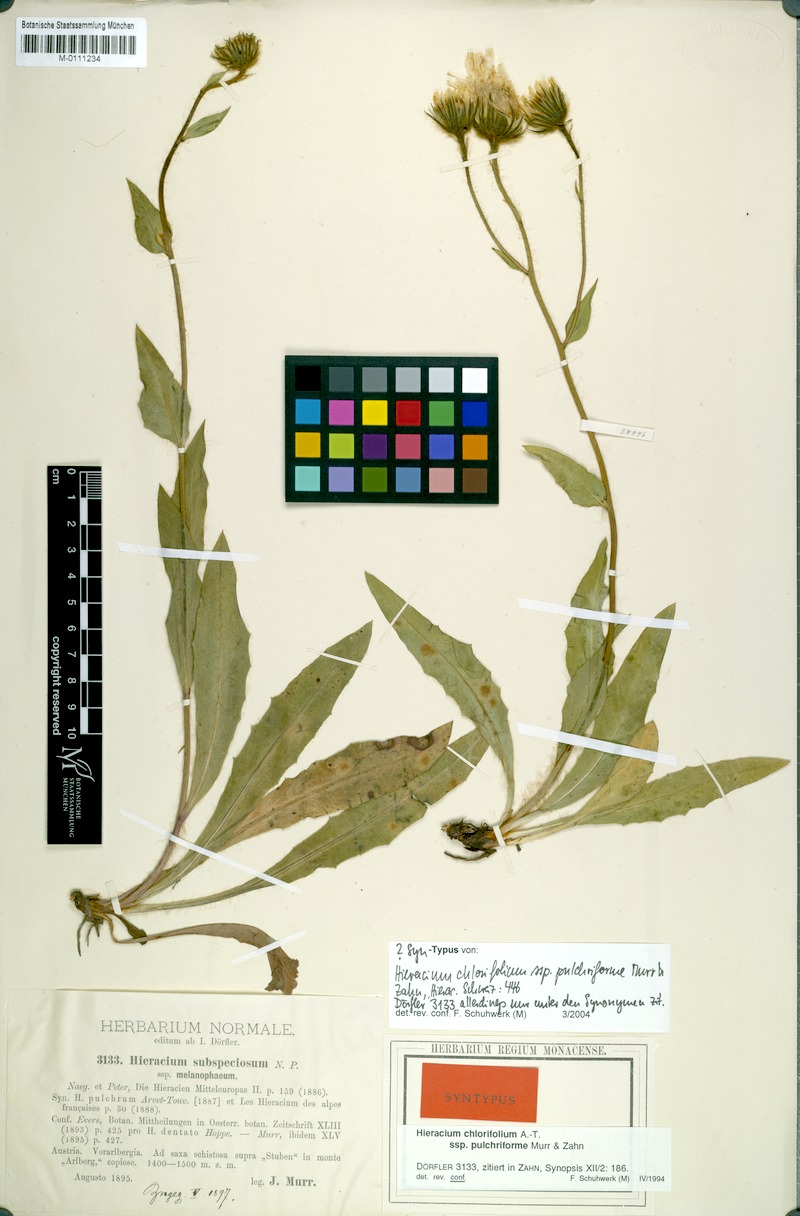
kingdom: Plantae
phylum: Tracheophyta
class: Magnoliopsida
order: Asterales
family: Asteraceae
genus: Hieracium
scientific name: Hieracium chlorifolium
